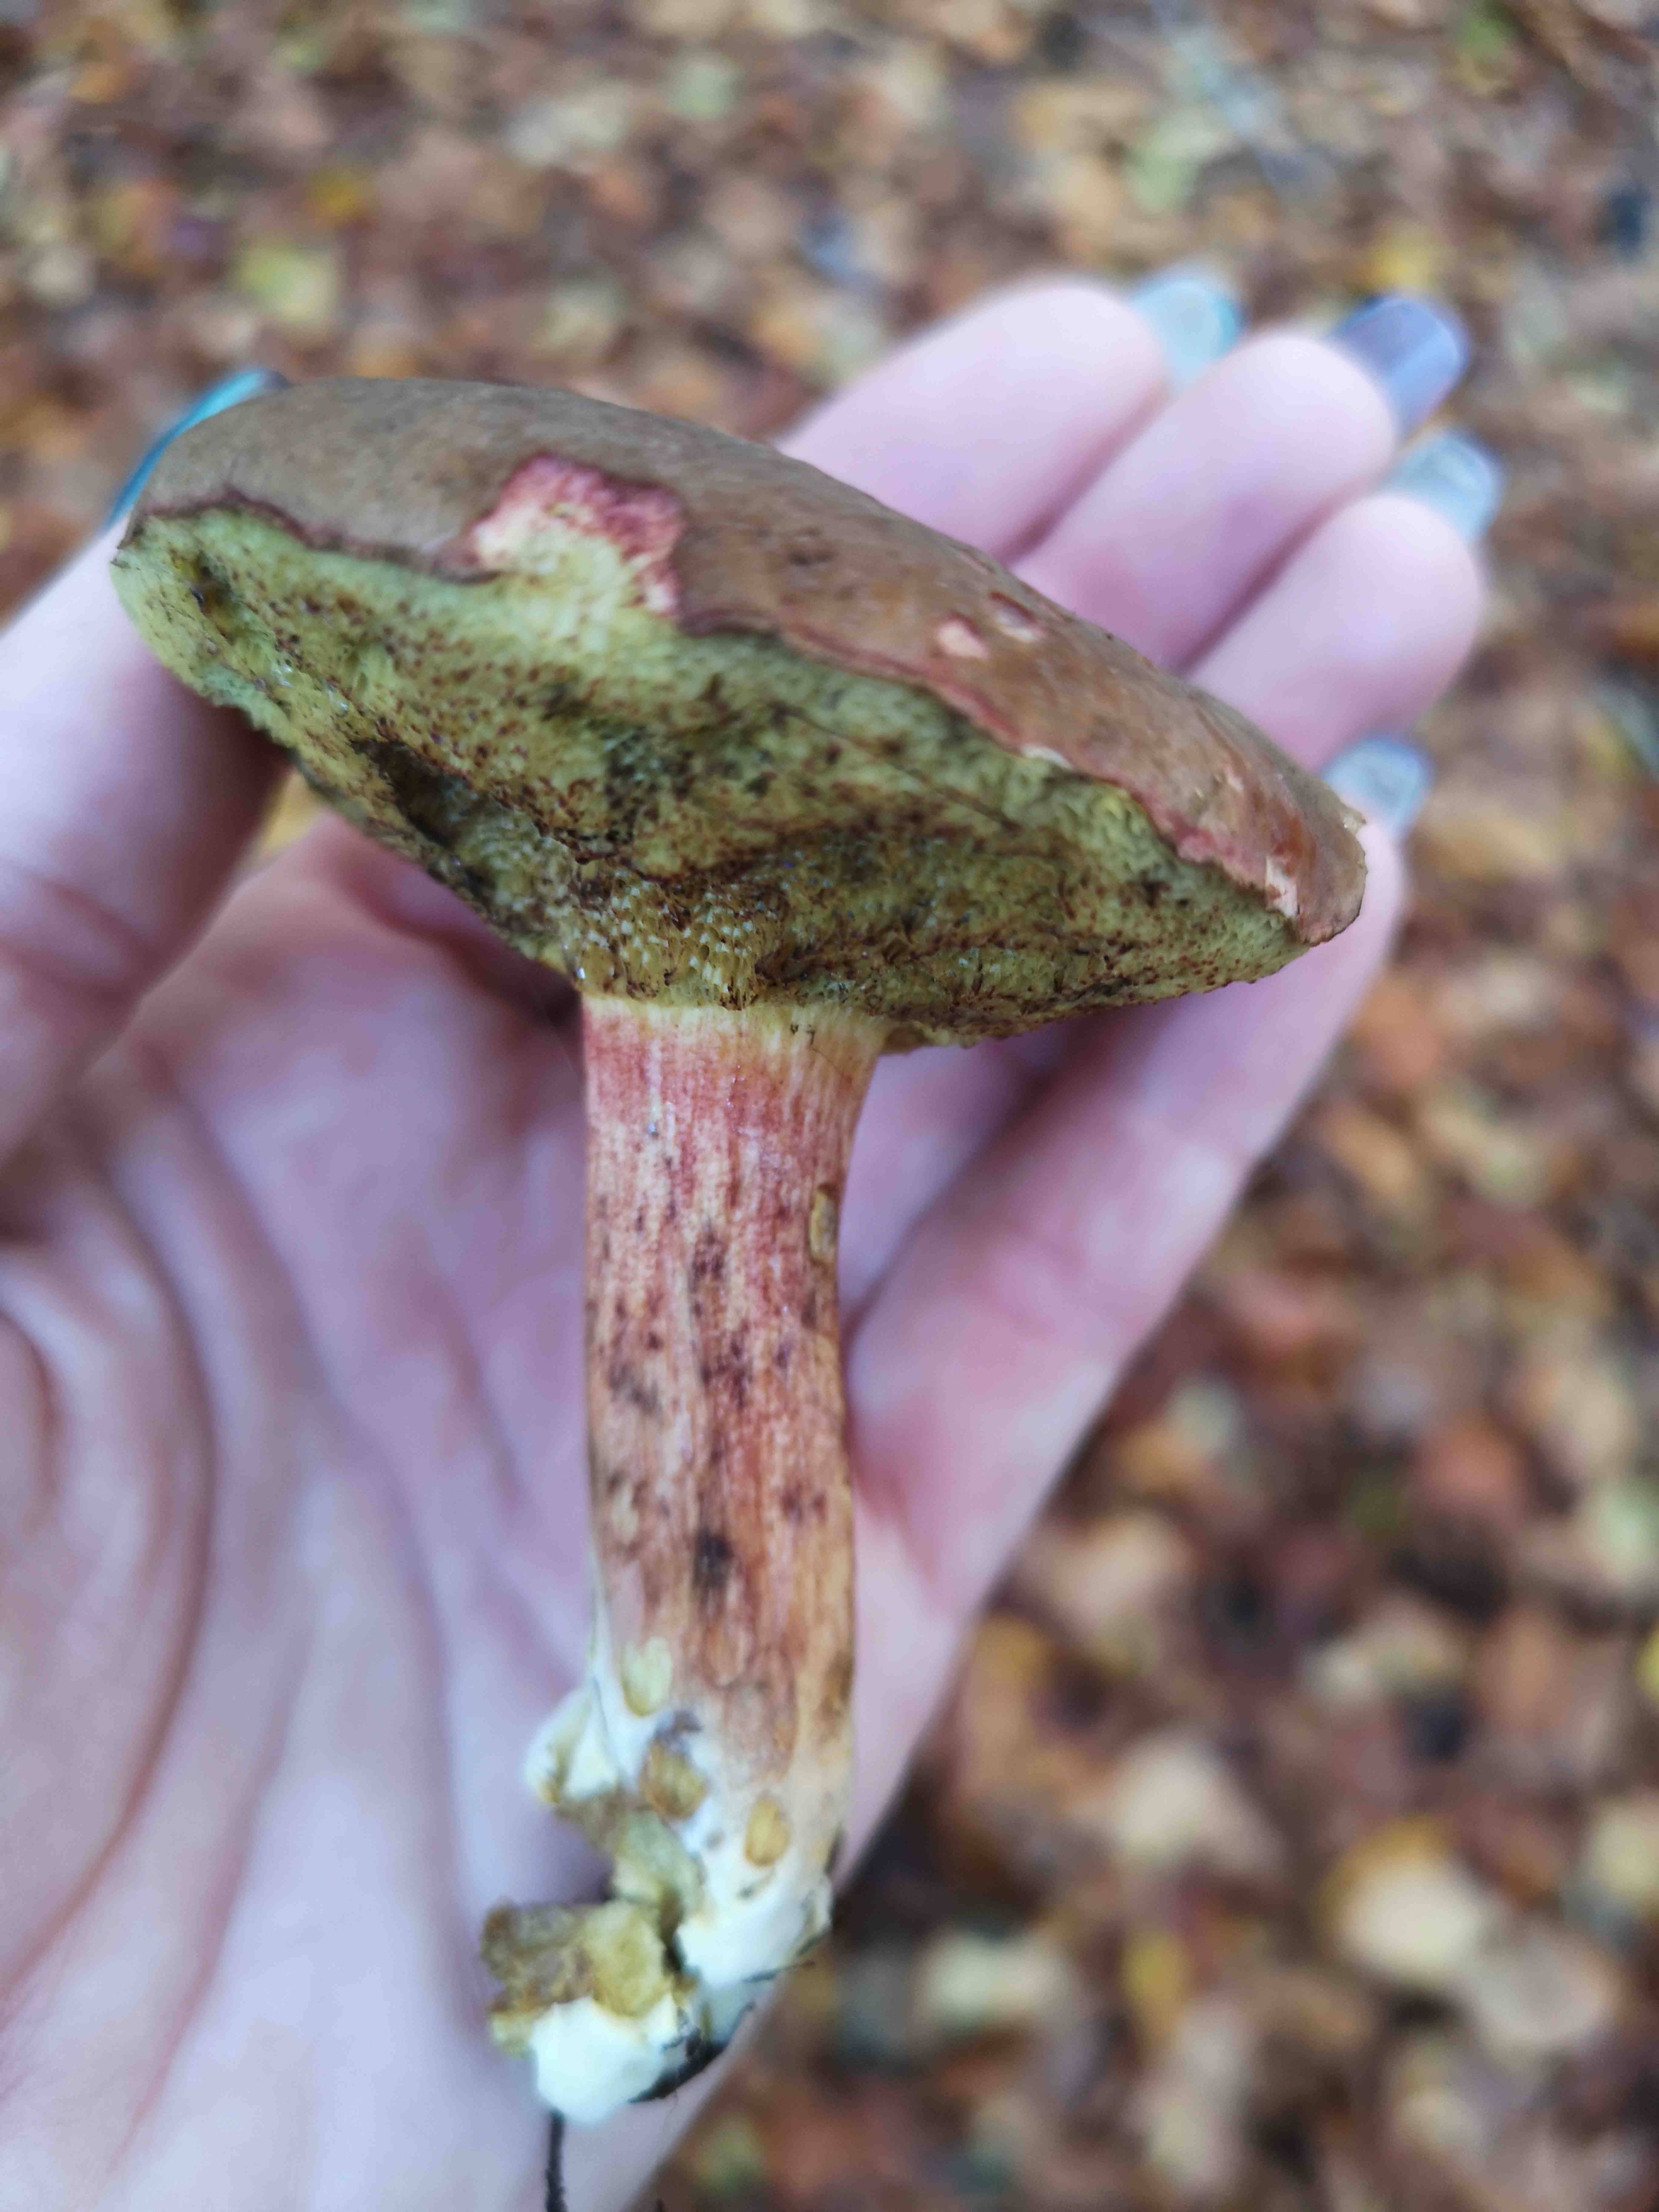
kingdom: Fungi
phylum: Basidiomycota
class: Agaricomycetes
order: Boletales
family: Boletaceae
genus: Xerocomellus
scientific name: Xerocomellus pruinatus
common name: dugget rørhat
